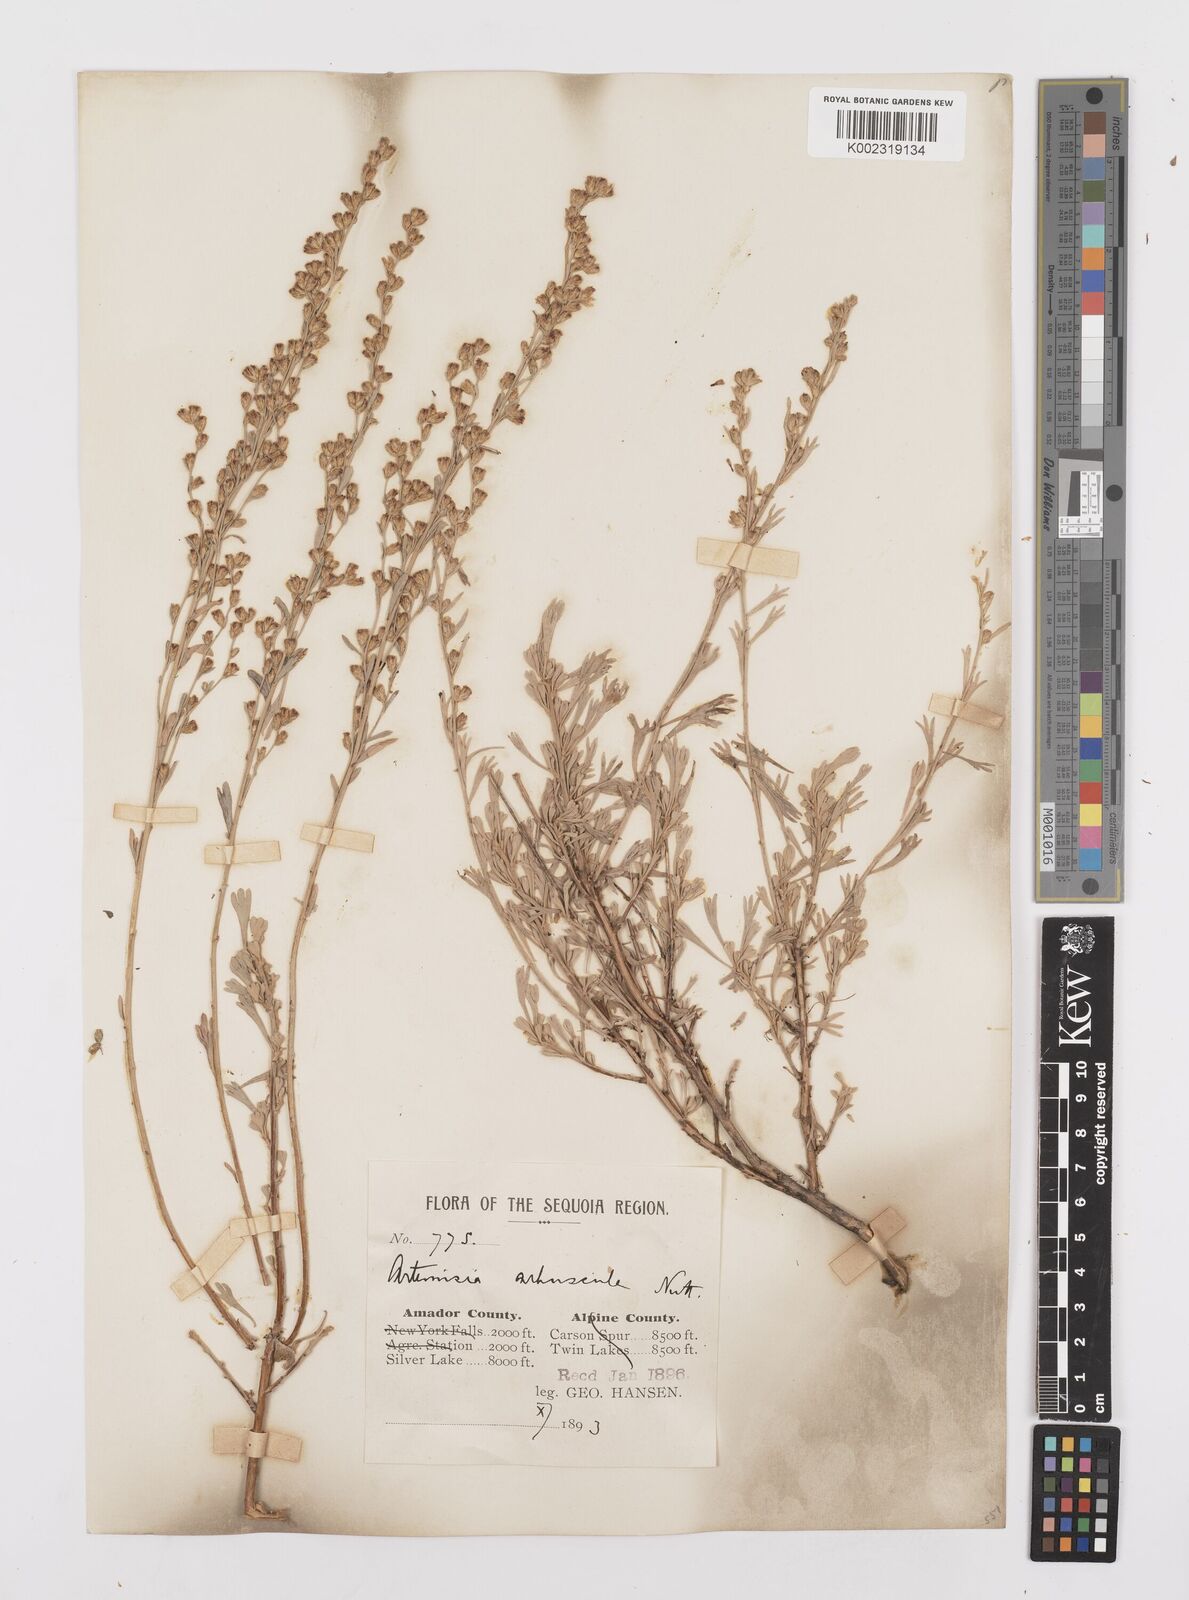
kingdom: Plantae
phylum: Tracheophyta
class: Magnoliopsida
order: Asterales
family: Asteraceae
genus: Artemisia
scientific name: Artemisia arbuscula
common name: Sagebrush
